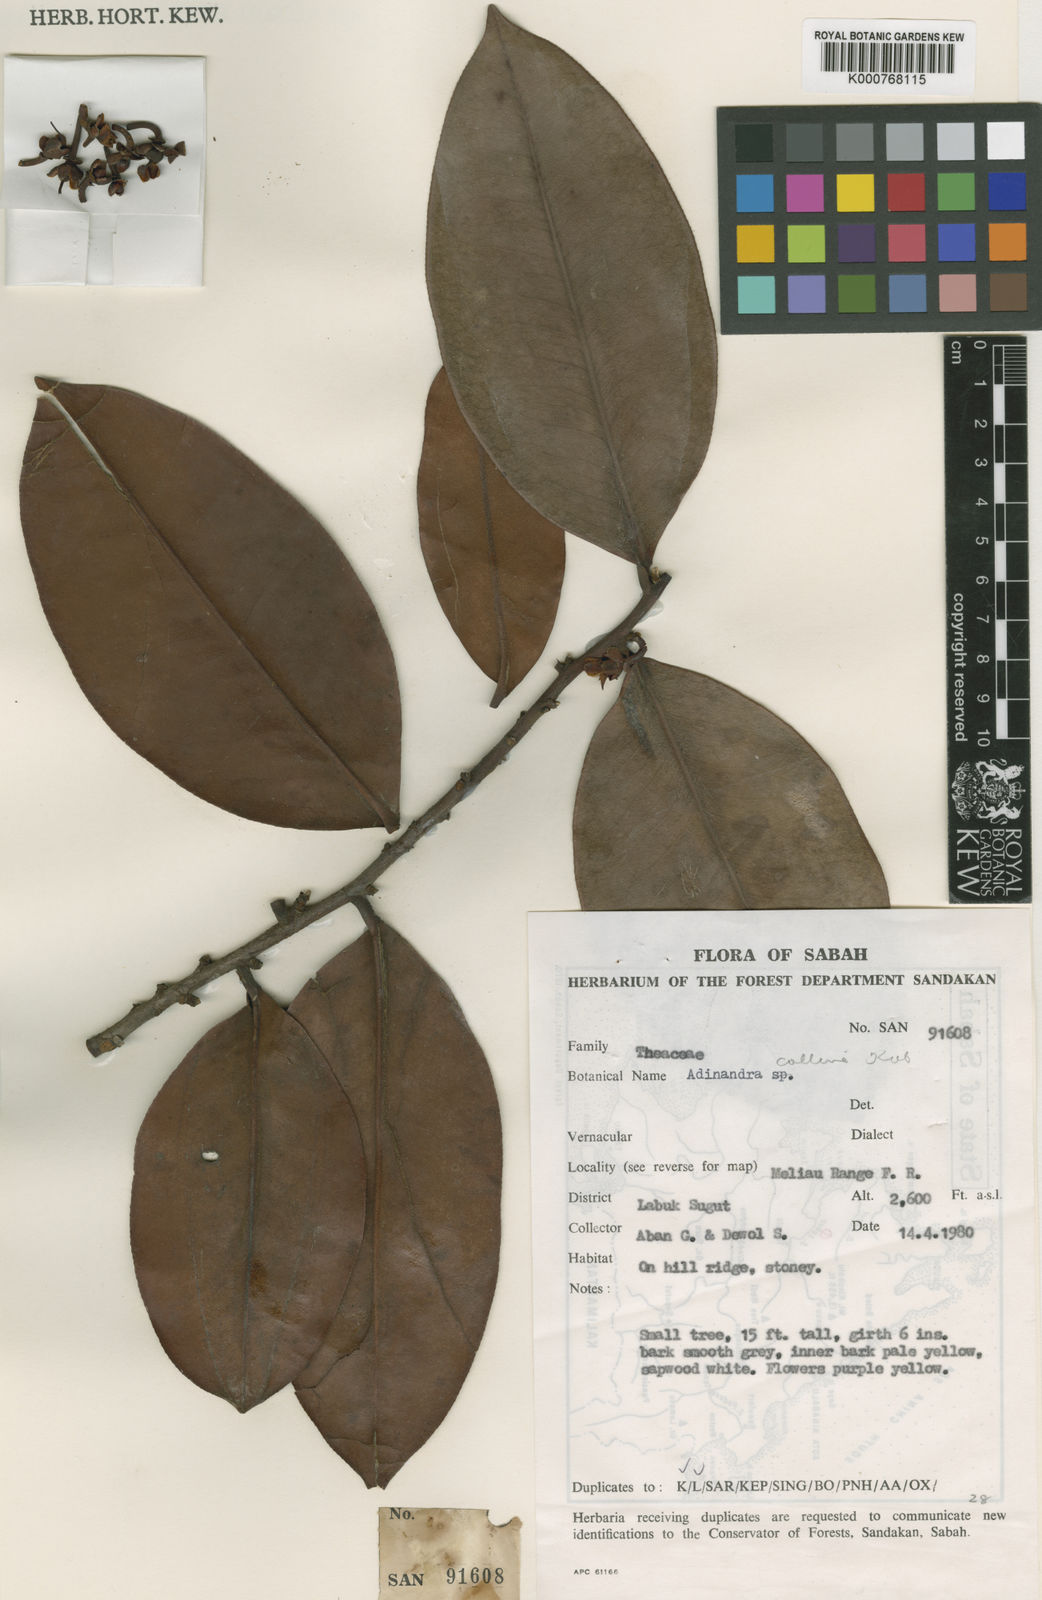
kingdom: Plantae
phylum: Tracheophyta
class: Magnoliopsida
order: Ericales
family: Pentaphylacaceae
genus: Adinandra
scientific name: Adinandra
